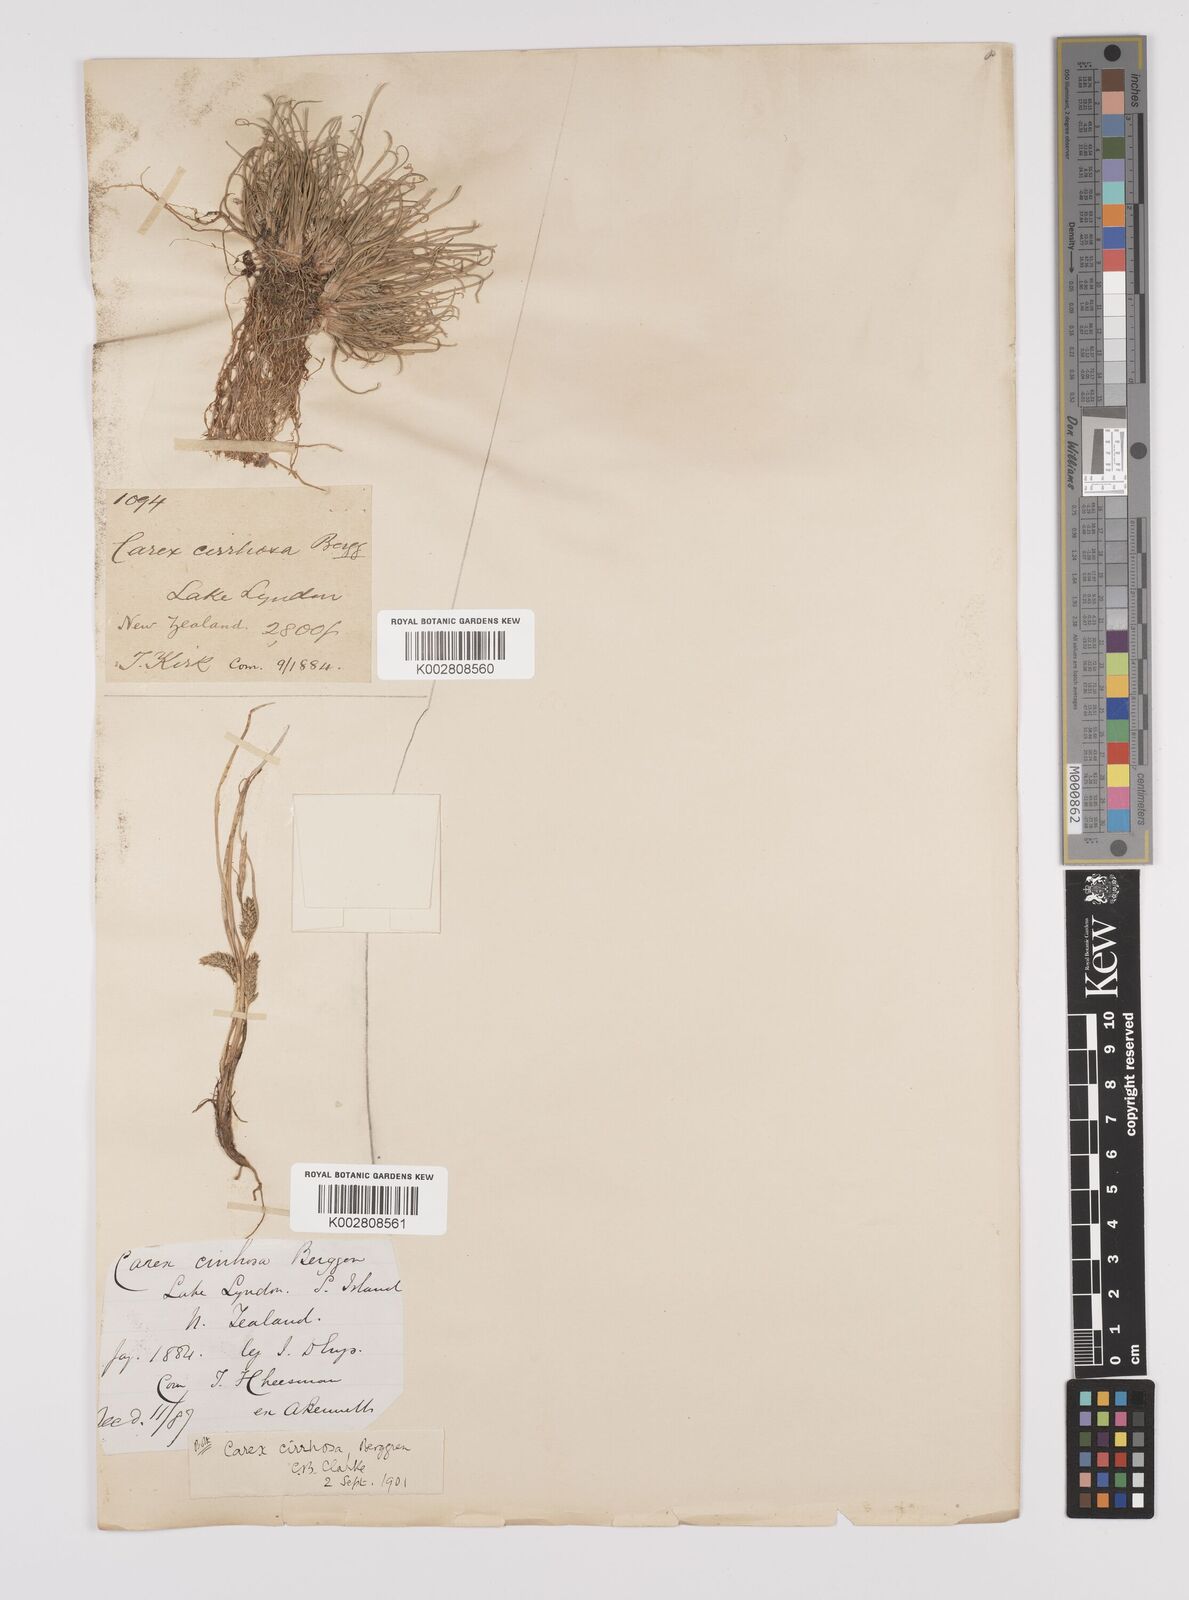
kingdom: Plantae
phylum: Tracheophyta
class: Liliopsida
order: Poales
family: Cyperaceae
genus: Carex
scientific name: Carex cirrhosa
